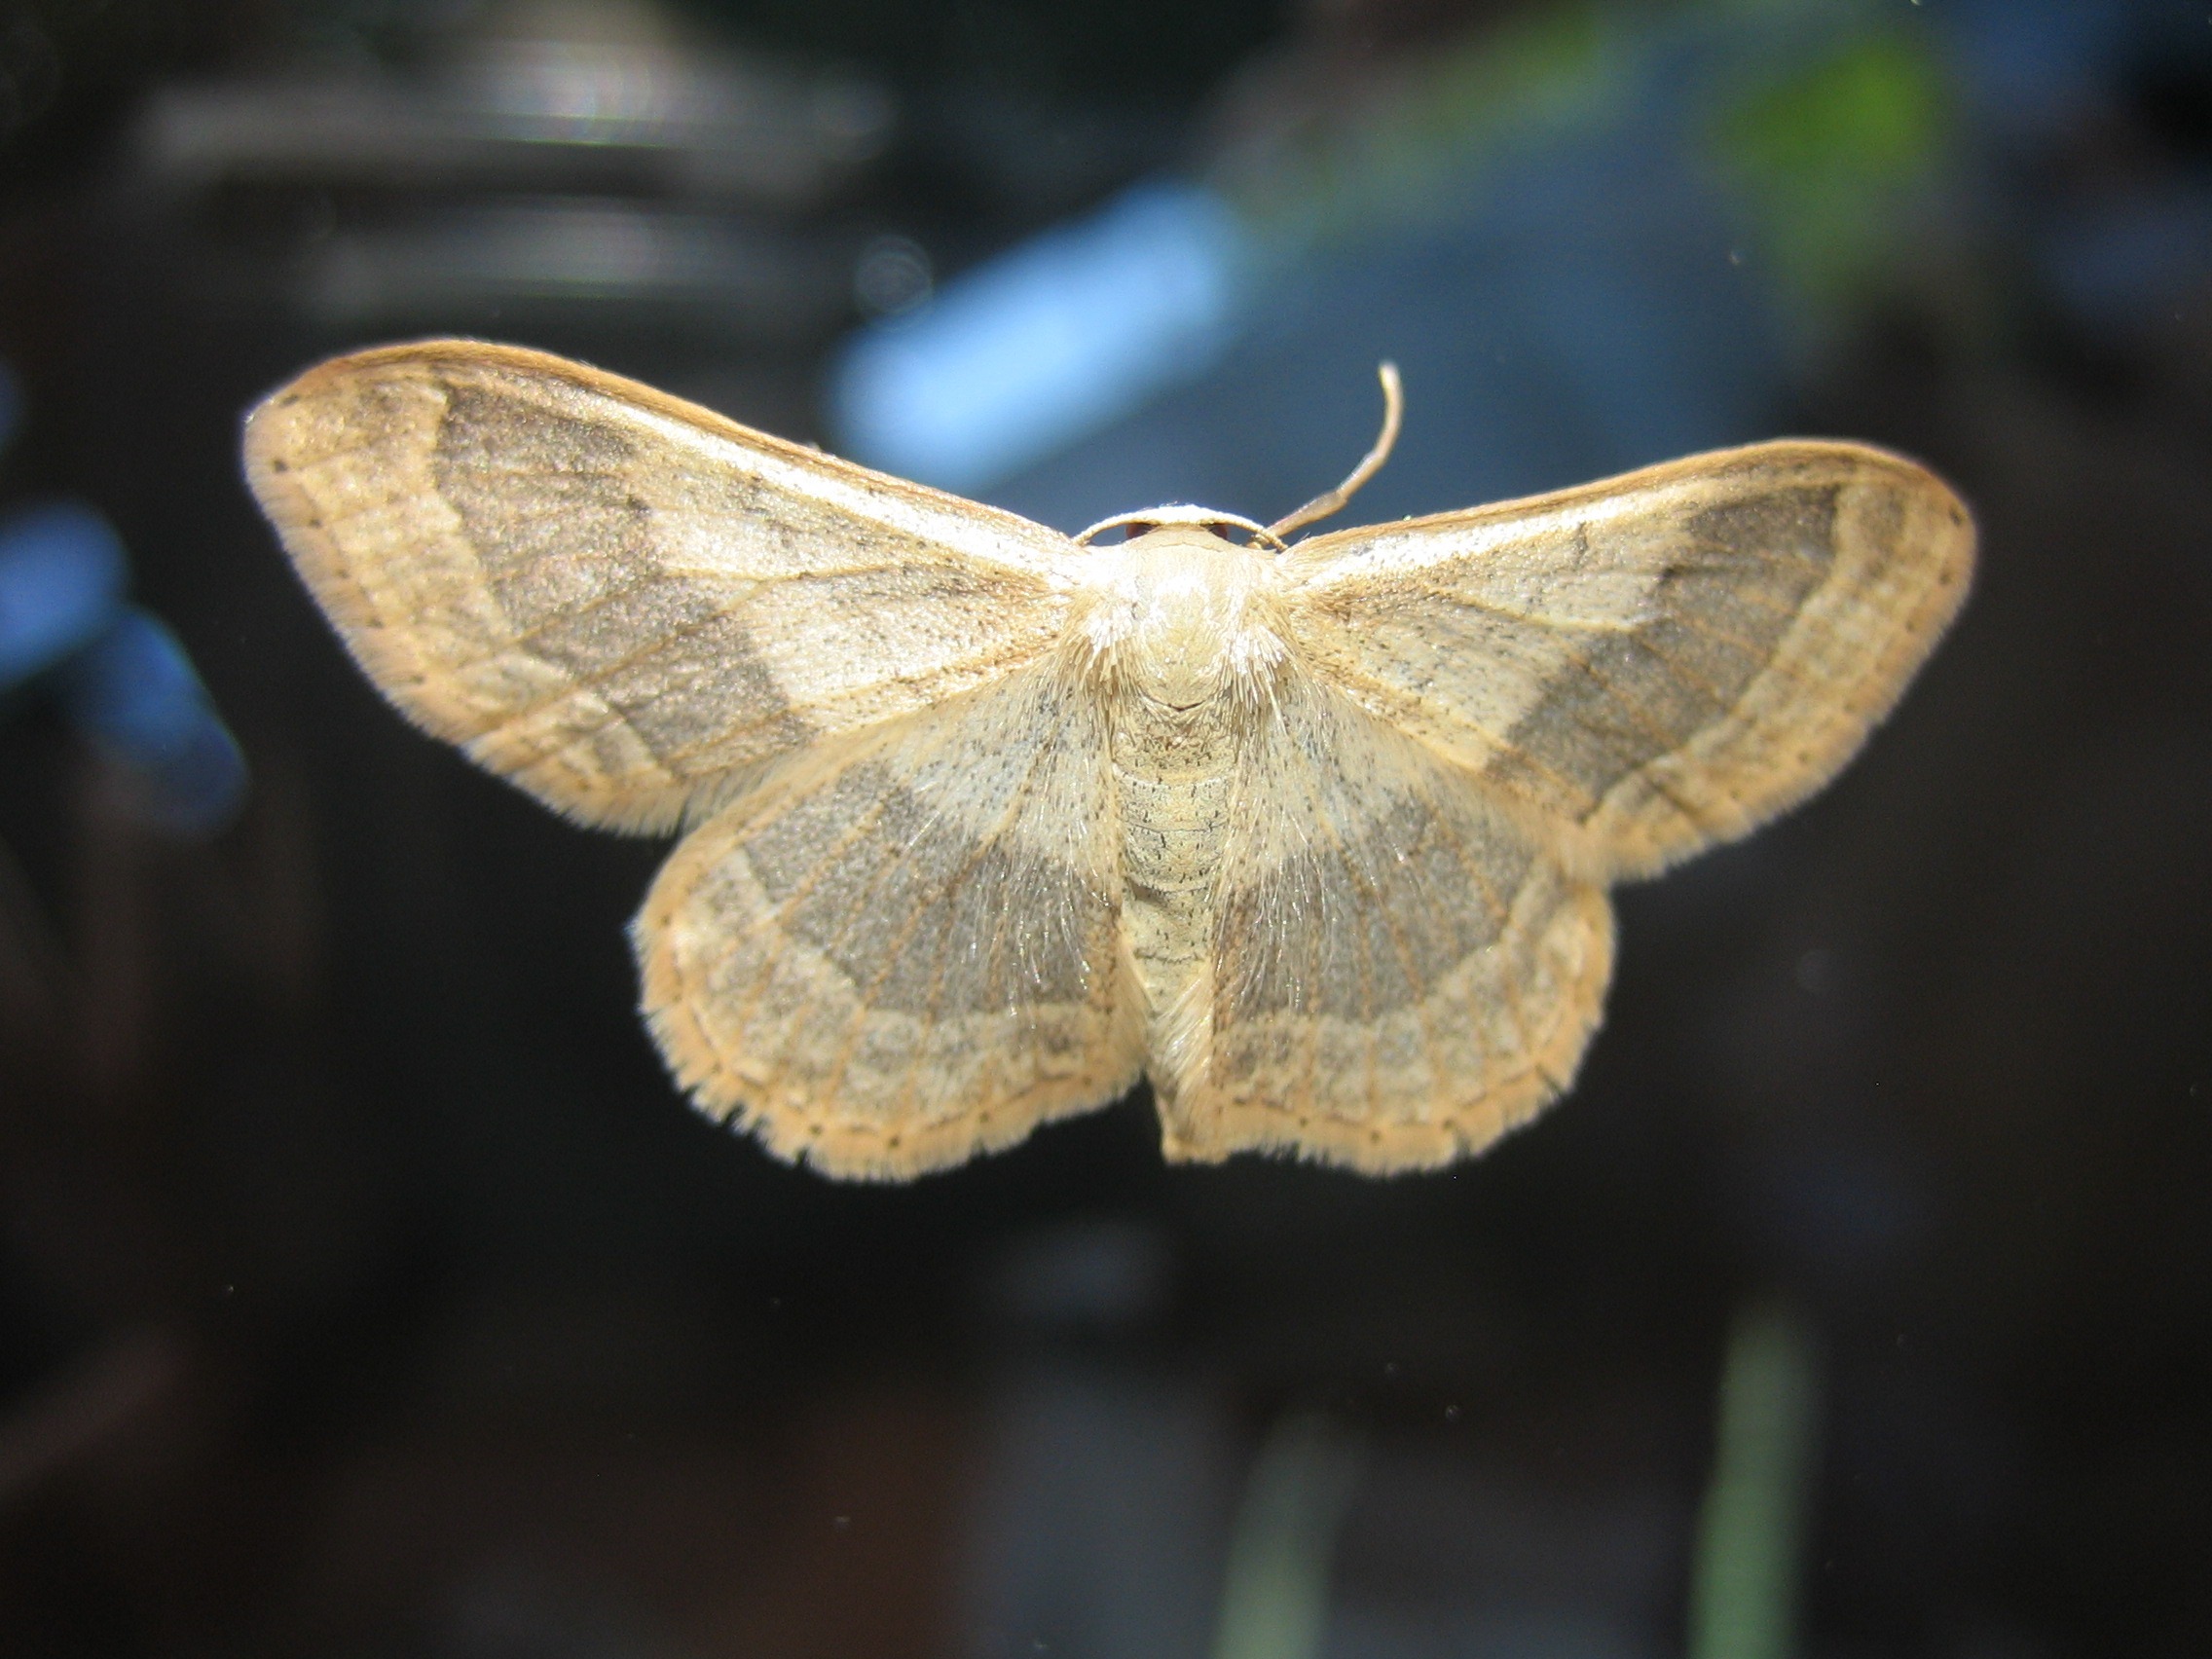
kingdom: Animalia
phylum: Arthropoda
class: Insecta
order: Lepidoptera
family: Geometridae
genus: Idaea
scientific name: Idaea aversata
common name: Vinkelstreget løvmåler
